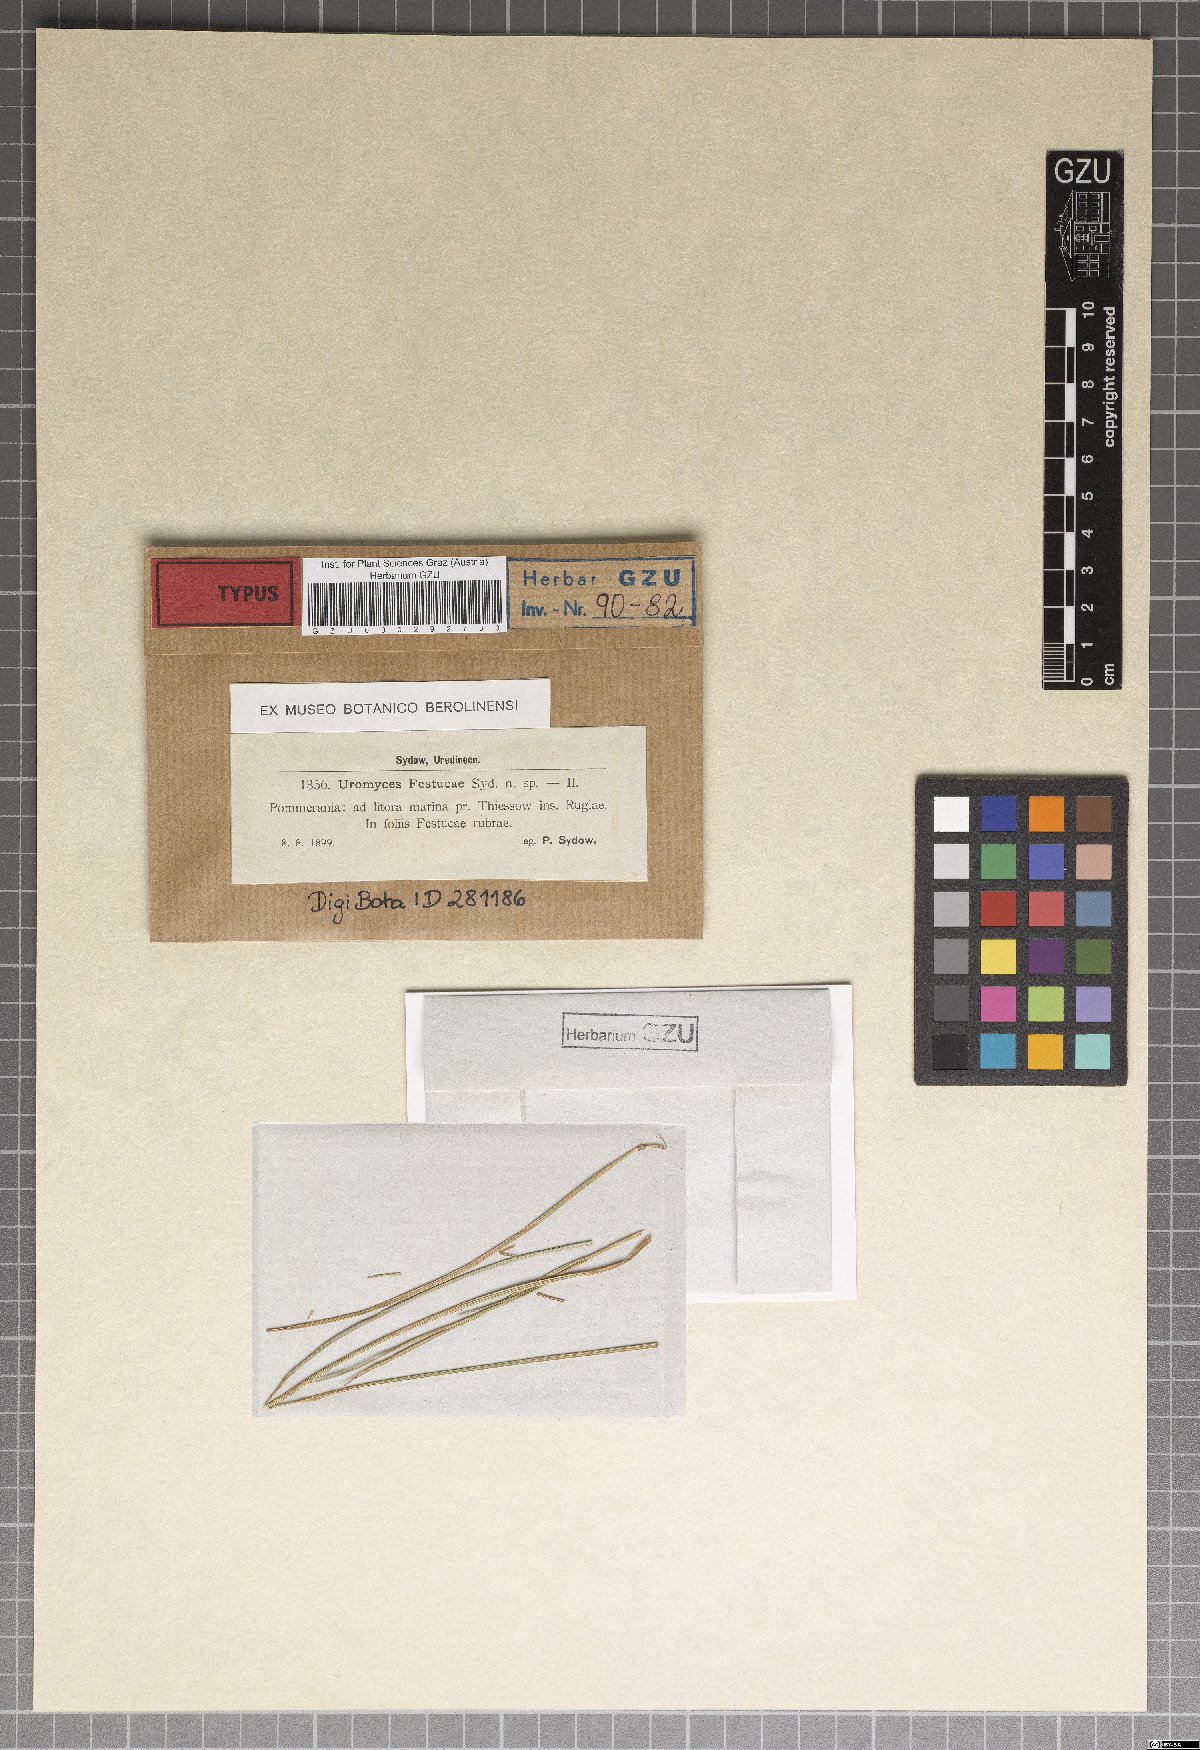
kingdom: Fungi
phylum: Basidiomycota
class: Pucciniomycetes
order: Pucciniales
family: Pucciniaceae
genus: Uromyces
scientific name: Uromyces dactylidis
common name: Celandine clustercup rust
